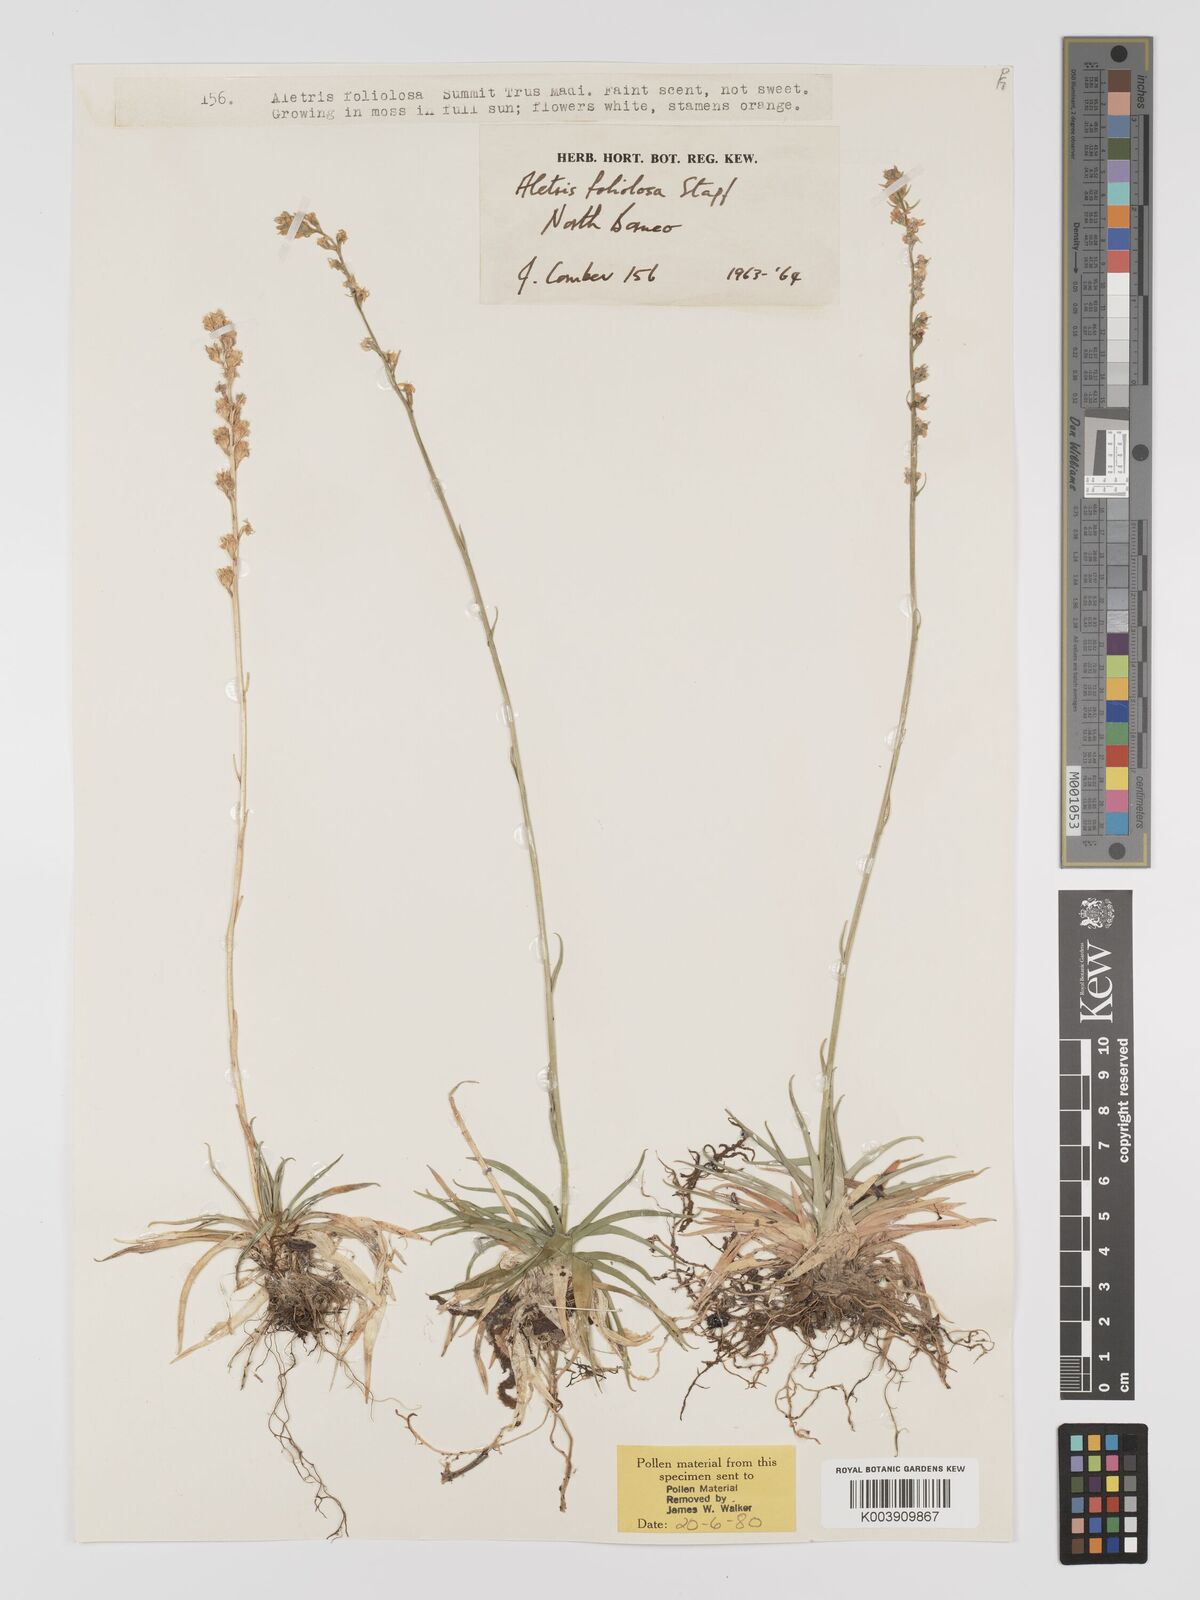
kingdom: Plantae
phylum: Tracheophyta
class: Liliopsida
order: Dioscoreales
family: Nartheciaceae
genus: Aletris
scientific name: Aletris foliolosa
